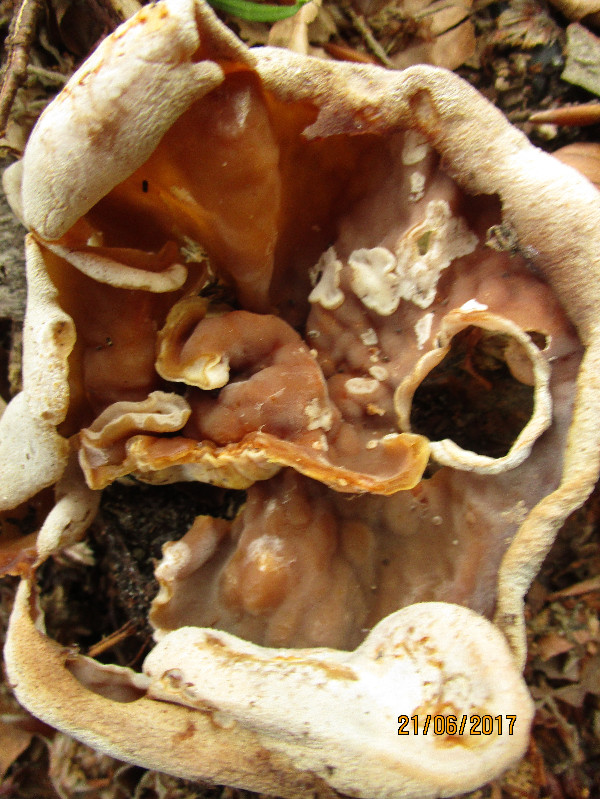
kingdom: Fungi
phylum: Ascomycota
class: Pezizomycetes
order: Pezizales
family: Pezizaceae
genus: Peziza
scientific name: Peziza
